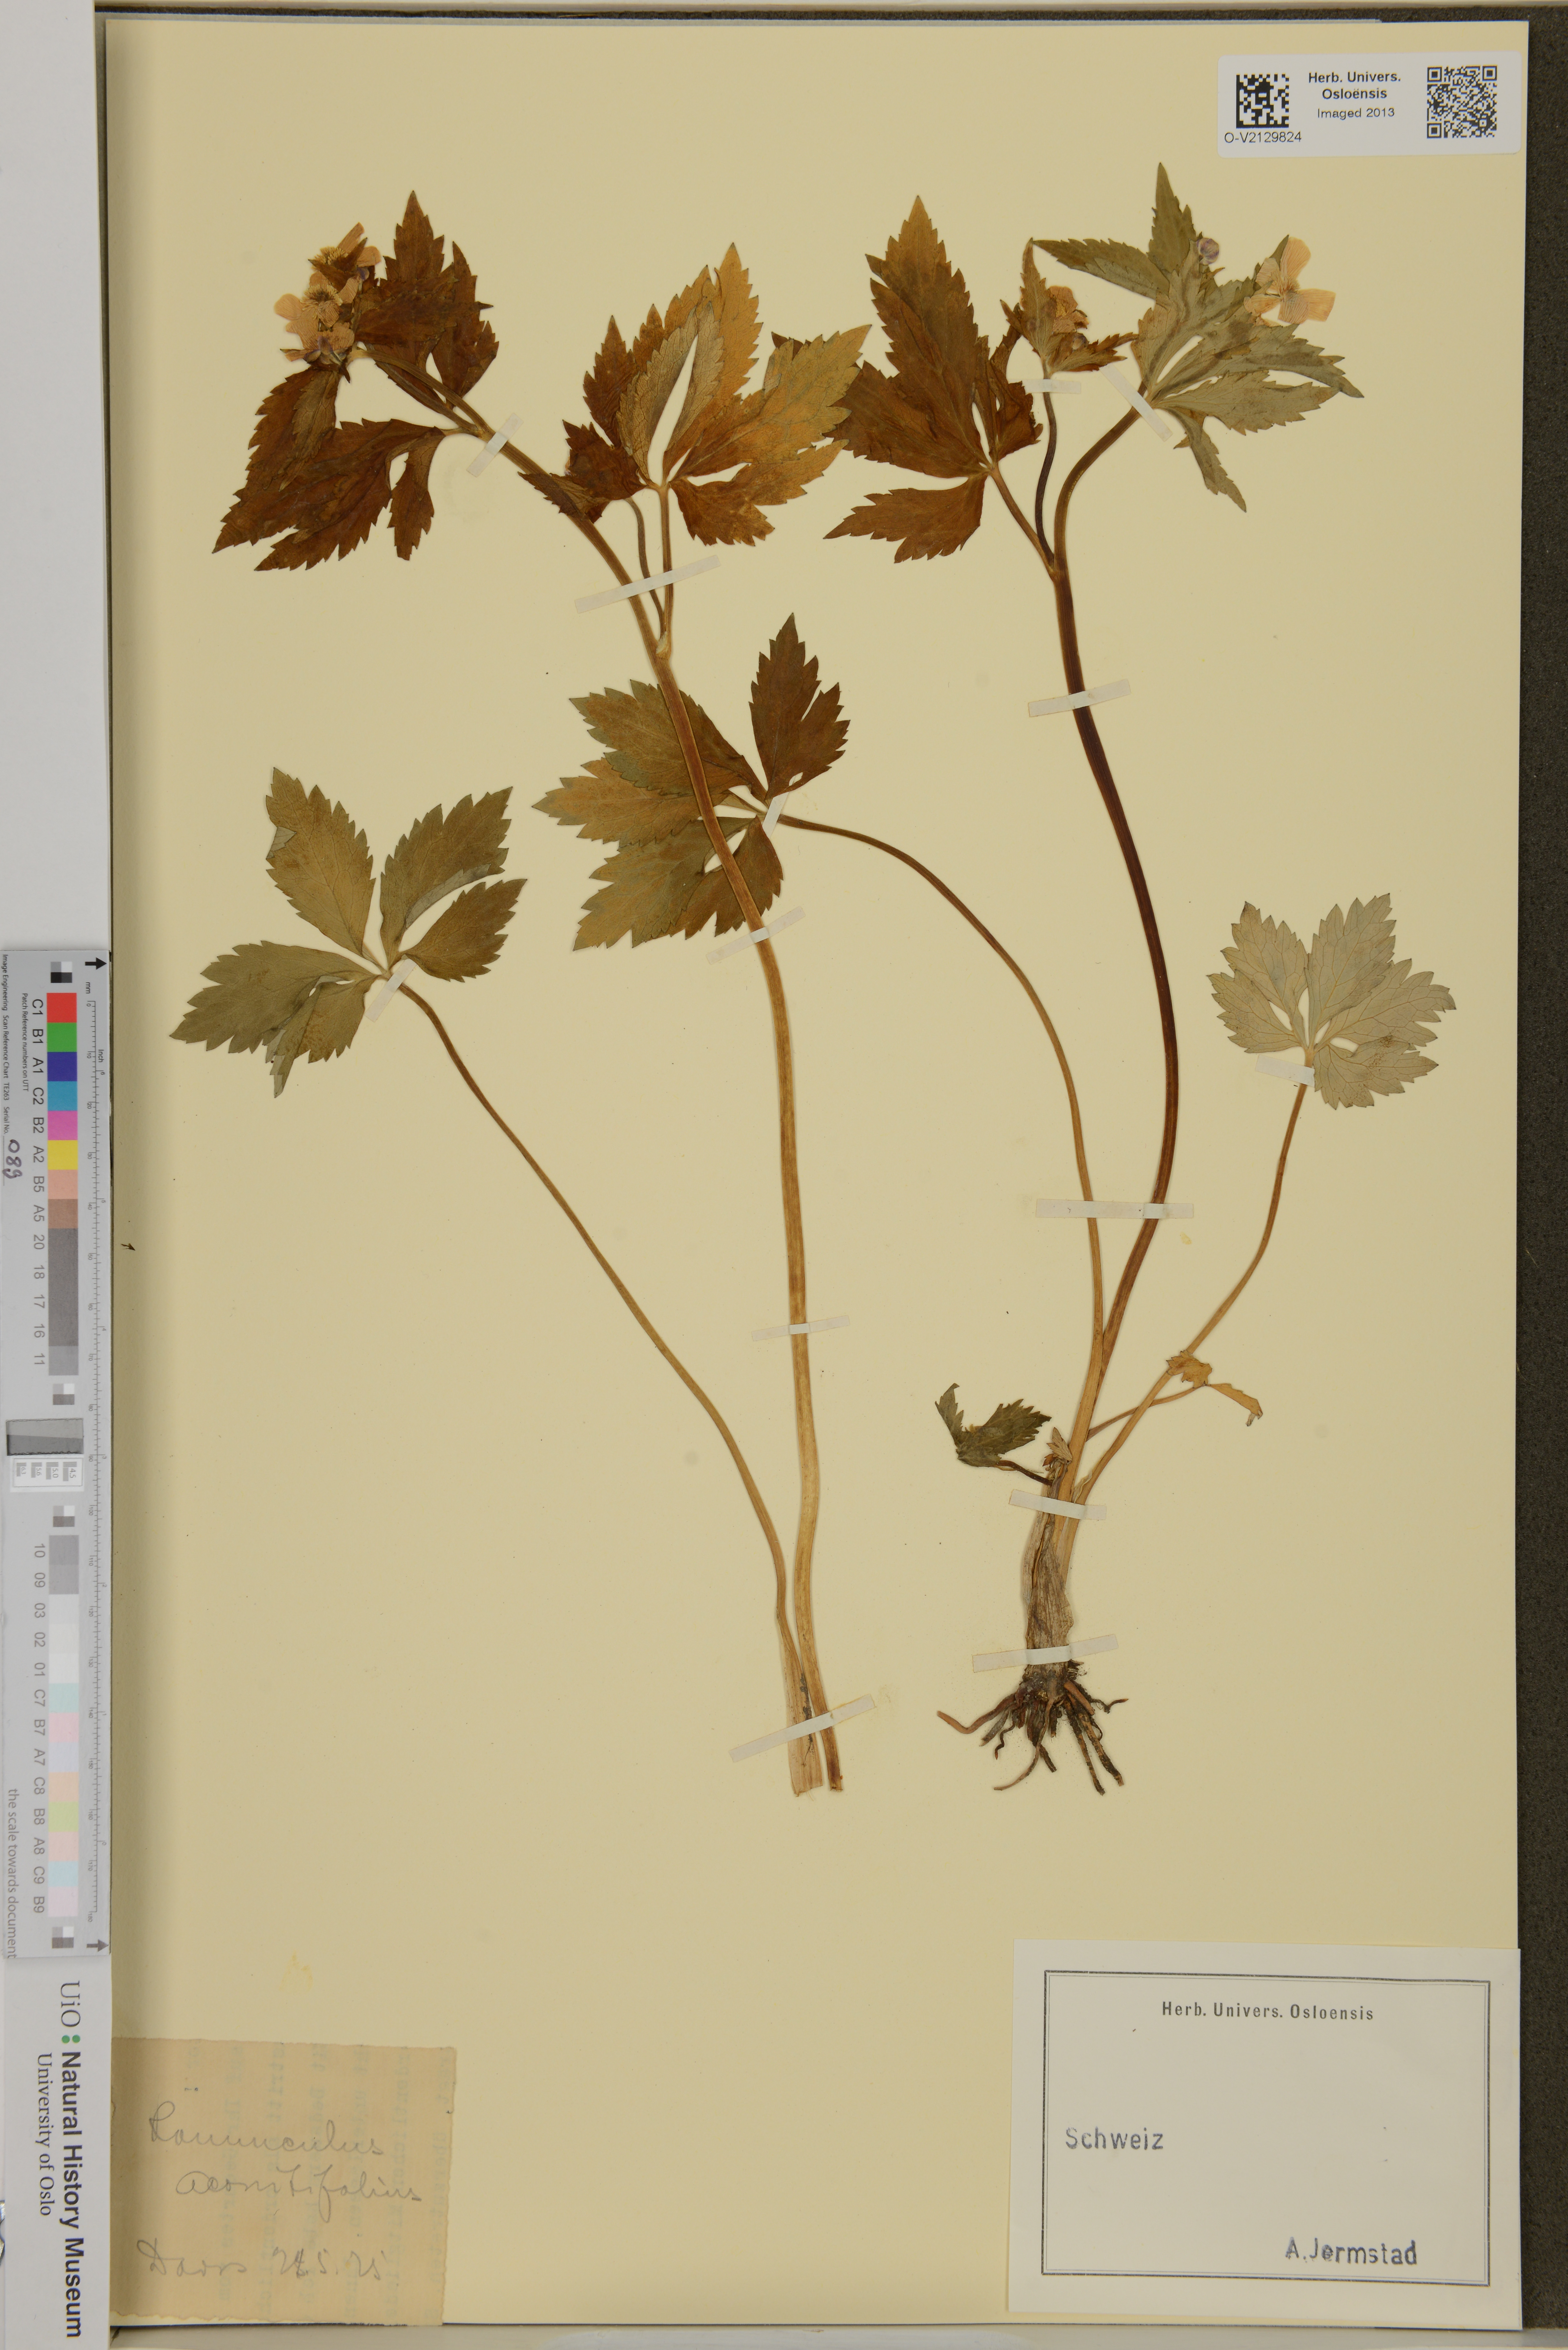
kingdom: Plantae
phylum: Tracheophyta
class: Magnoliopsida
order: Ranunculales
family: Ranunculaceae
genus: Ranunculus
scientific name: Ranunculus aconitifolius
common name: Aconite-leaved buttercup
